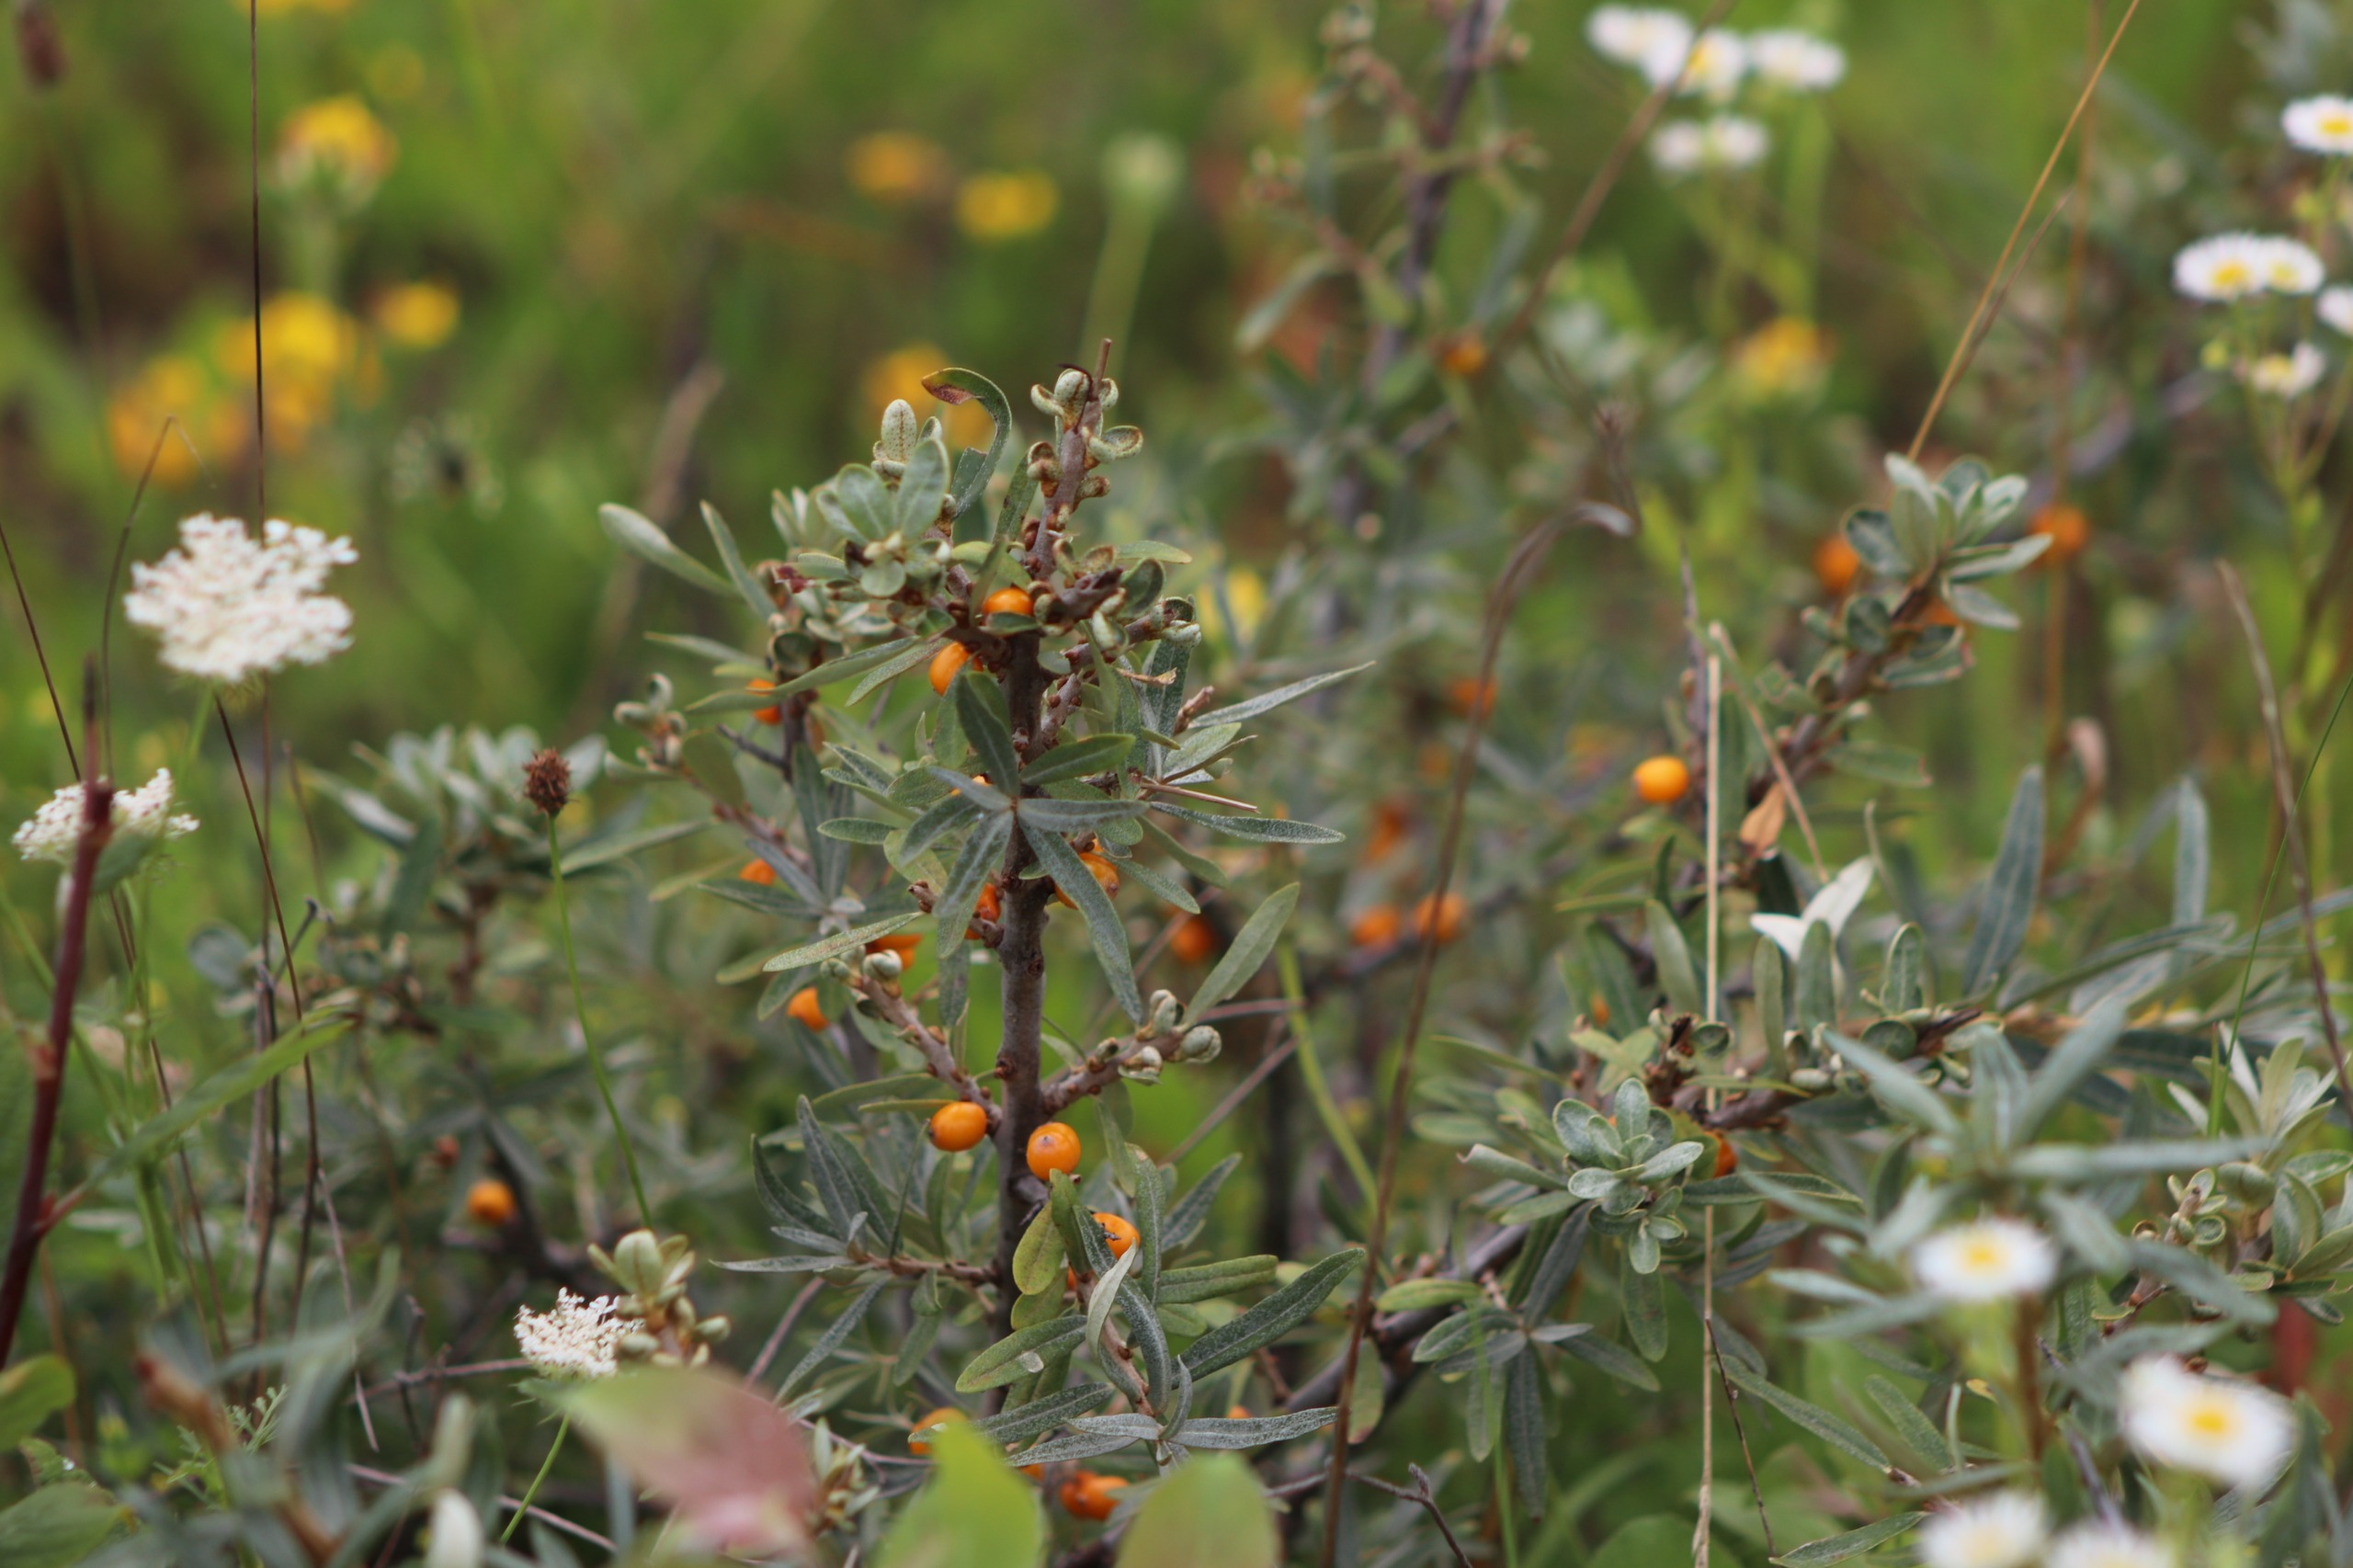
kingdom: Plantae
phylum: Tracheophyta
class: Magnoliopsida
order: Rosales
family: Elaeagnaceae
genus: Hippophae
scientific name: Hippophae rhamnoides
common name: Havtorn
